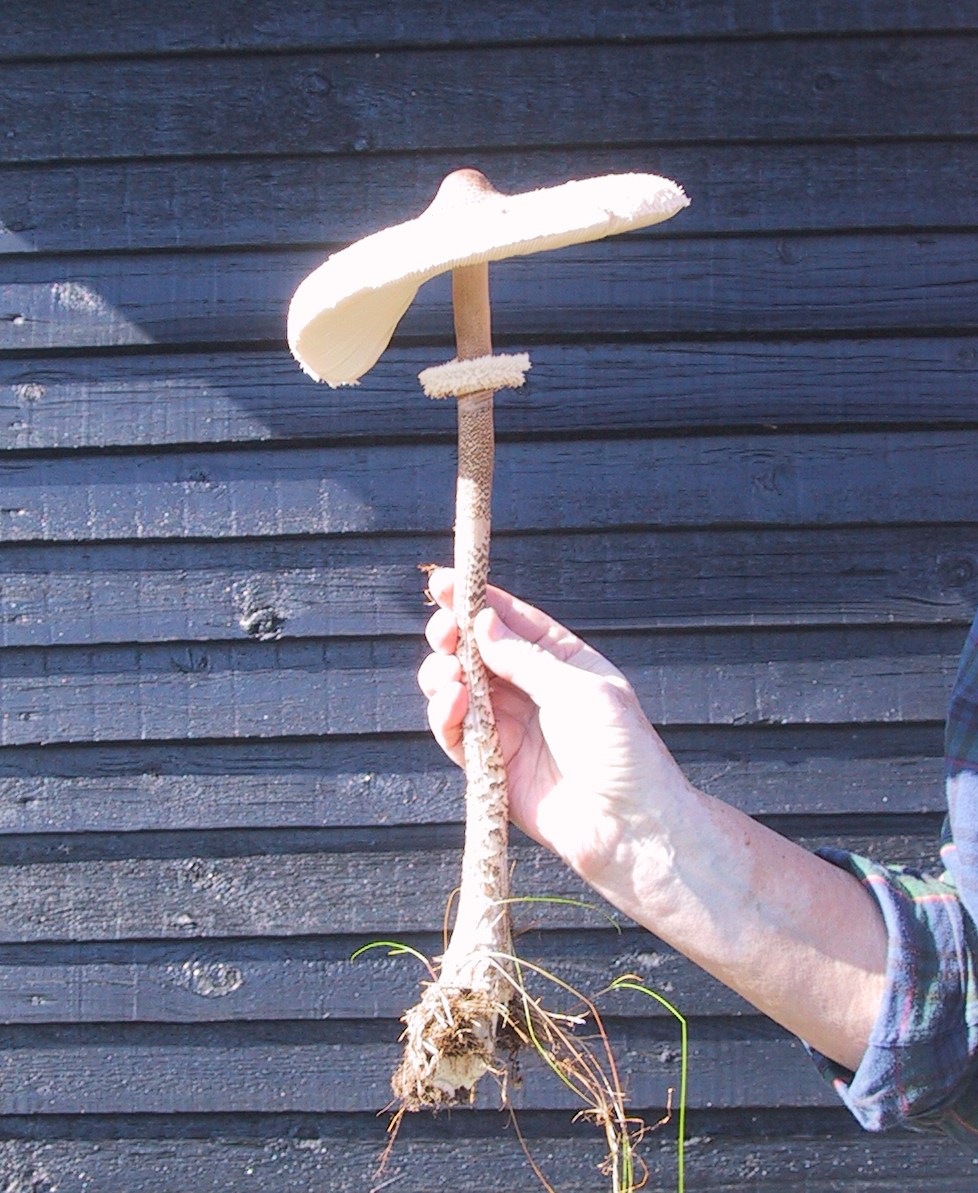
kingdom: Fungi
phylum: Basidiomycota
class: Agaricomycetes
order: Agaricales
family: Agaricaceae
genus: Macrolepiota
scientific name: Macrolepiota procera
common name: stor kæmpeparasolhat
